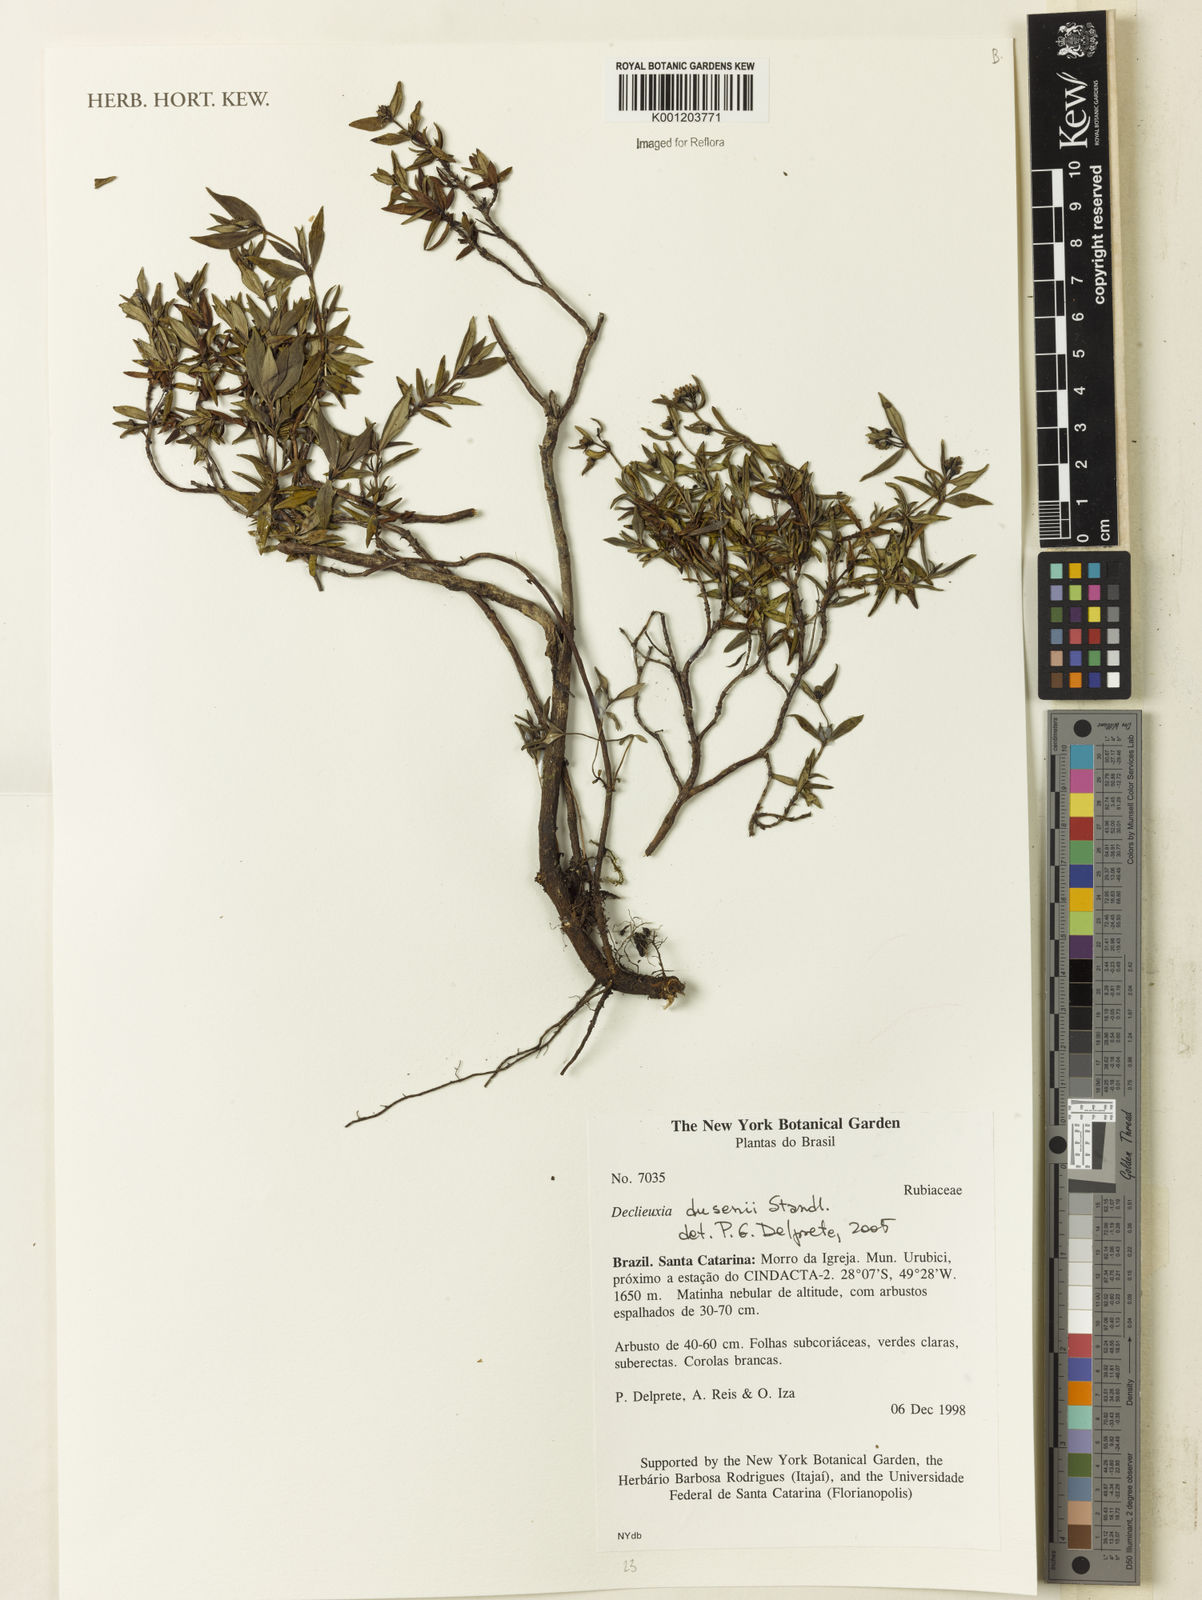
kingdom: Plantae
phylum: Tracheophyta
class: Magnoliopsida
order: Gentianales
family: Rubiaceae
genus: Declieuxia
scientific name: Declieuxia dusenii
